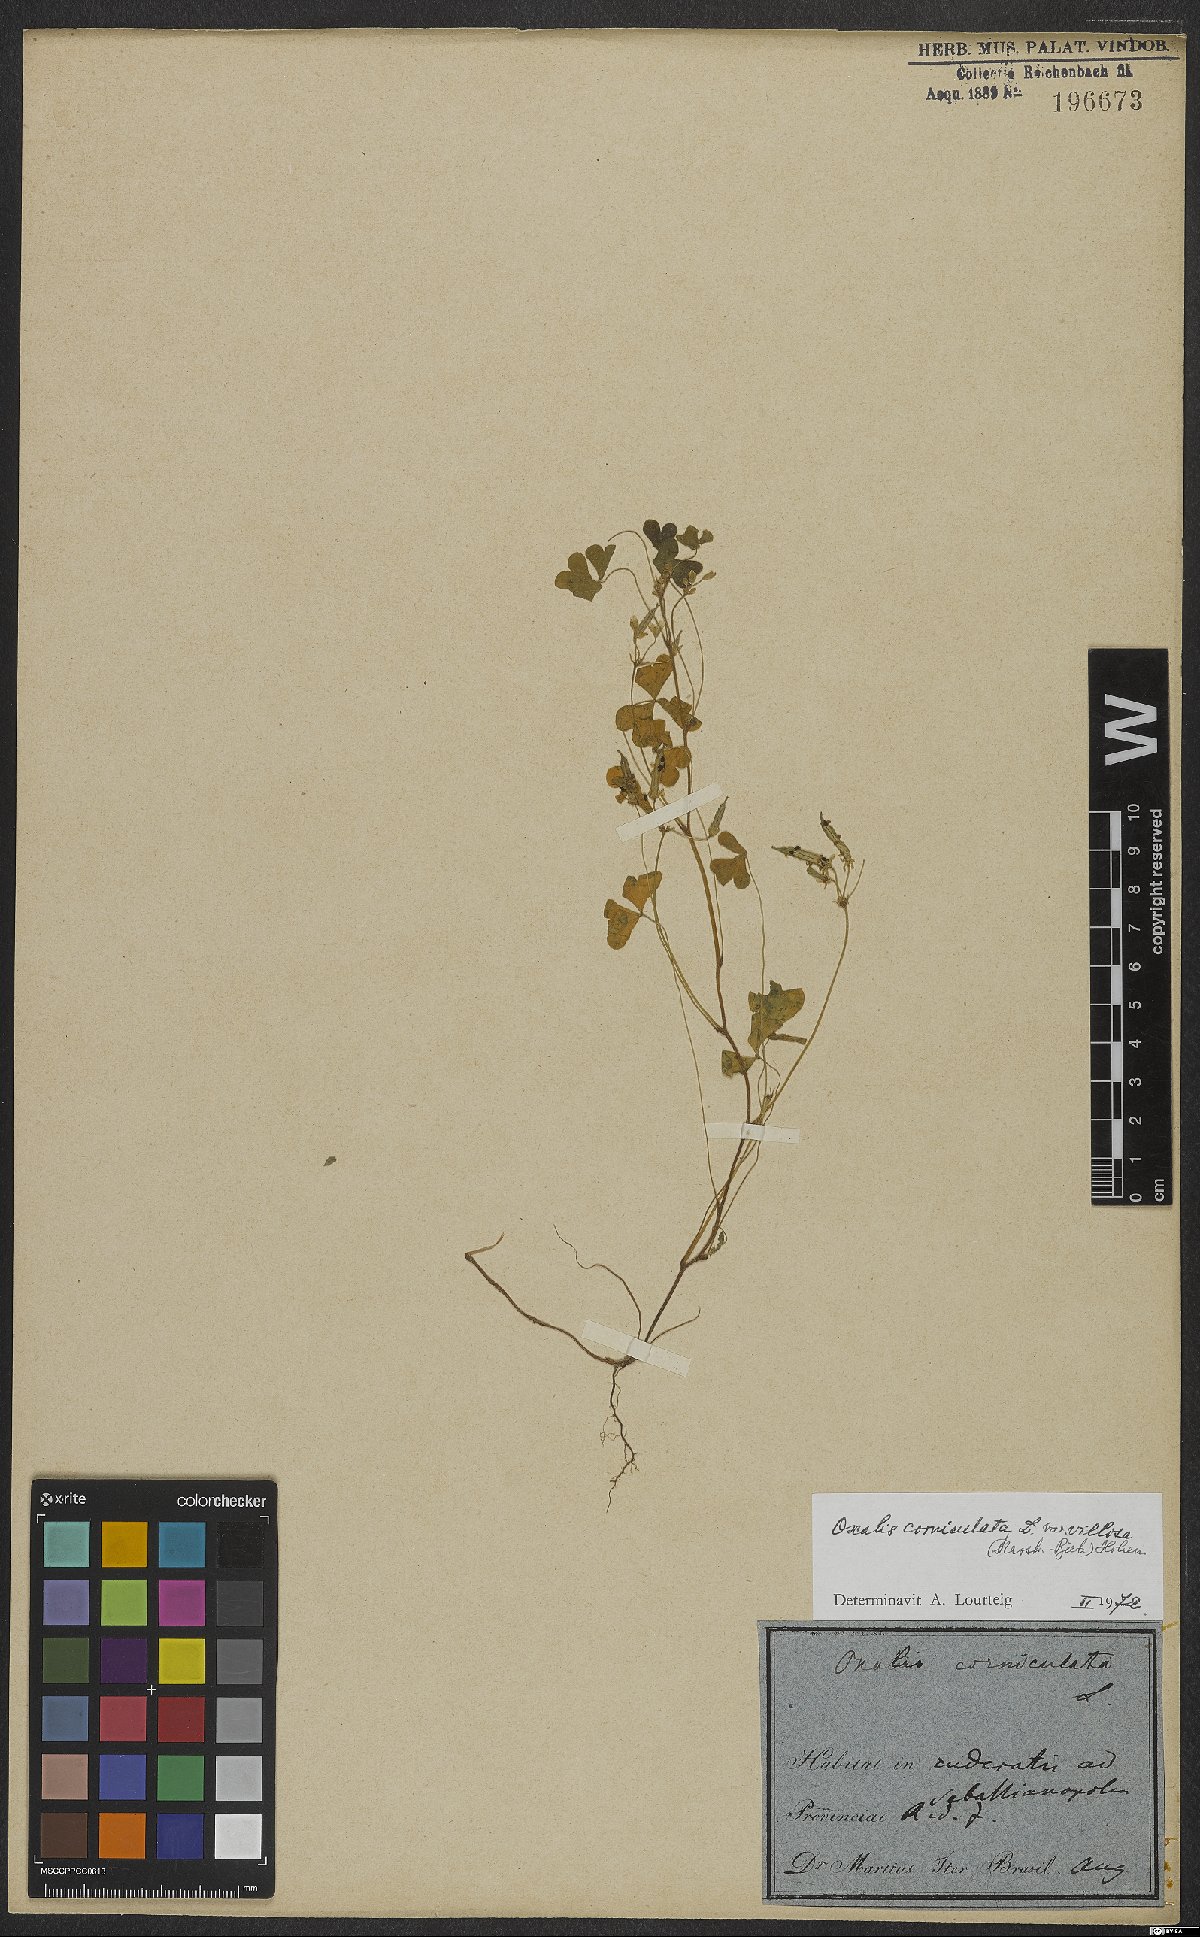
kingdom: Plantae
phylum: Tracheophyta
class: Magnoliopsida
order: Oxalidales
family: Oxalidaceae
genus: Oxalis
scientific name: Oxalis corniculata
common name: Procumbent yellow-sorrel
